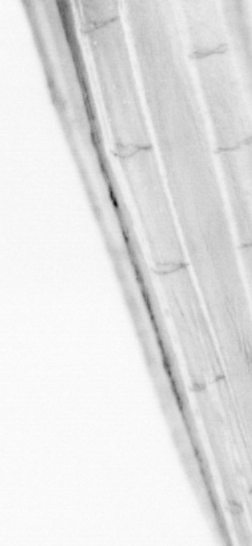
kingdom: Animalia
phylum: Chordata
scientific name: Chordata
